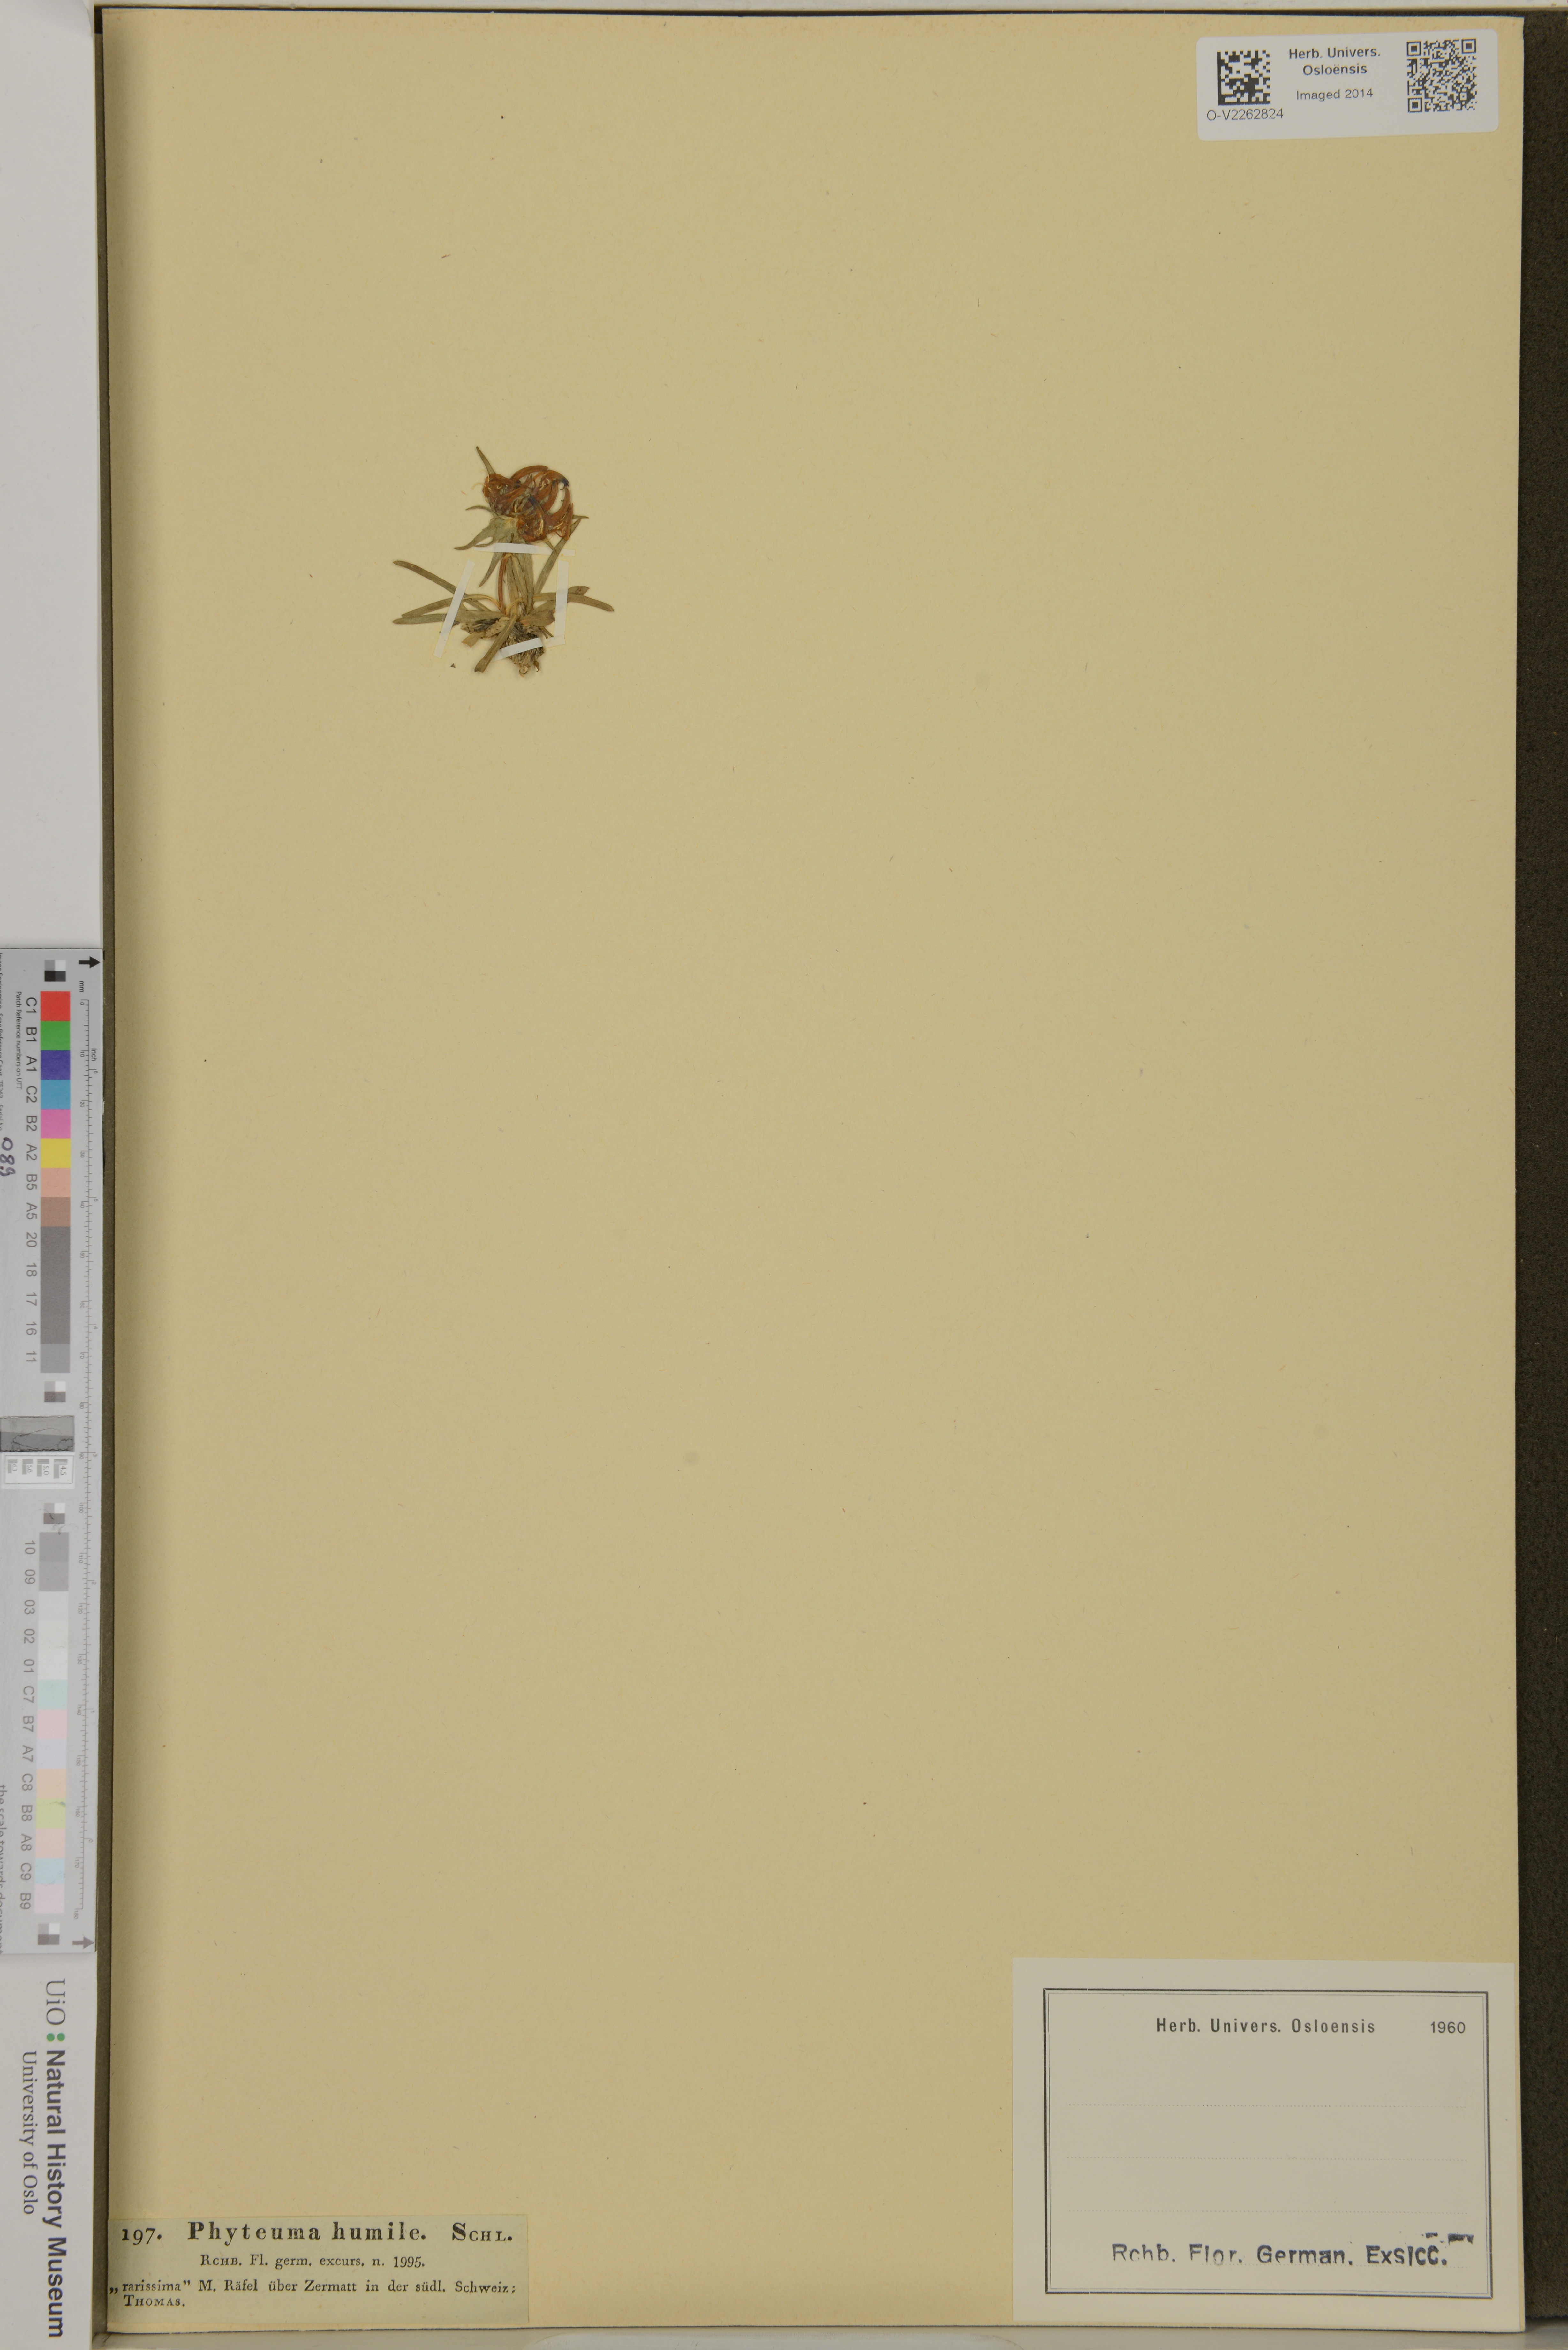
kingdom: Plantae
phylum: Tracheophyta
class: Magnoliopsida
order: Asterales
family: Campanulaceae
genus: Phyteuma
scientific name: Phyteuma humile
